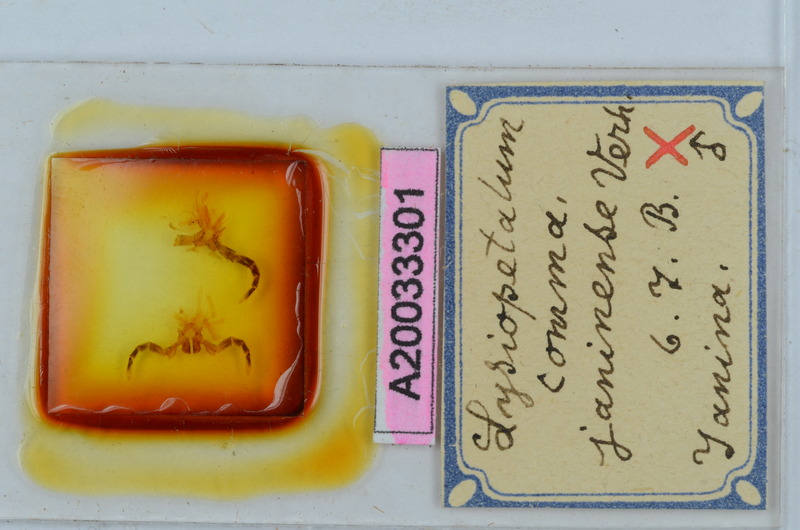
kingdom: Animalia
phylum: Arthropoda
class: Diplopoda
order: Callipodida
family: Schizopetalidae
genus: Acanthopetalum
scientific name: Acanthopetalum carinatum
